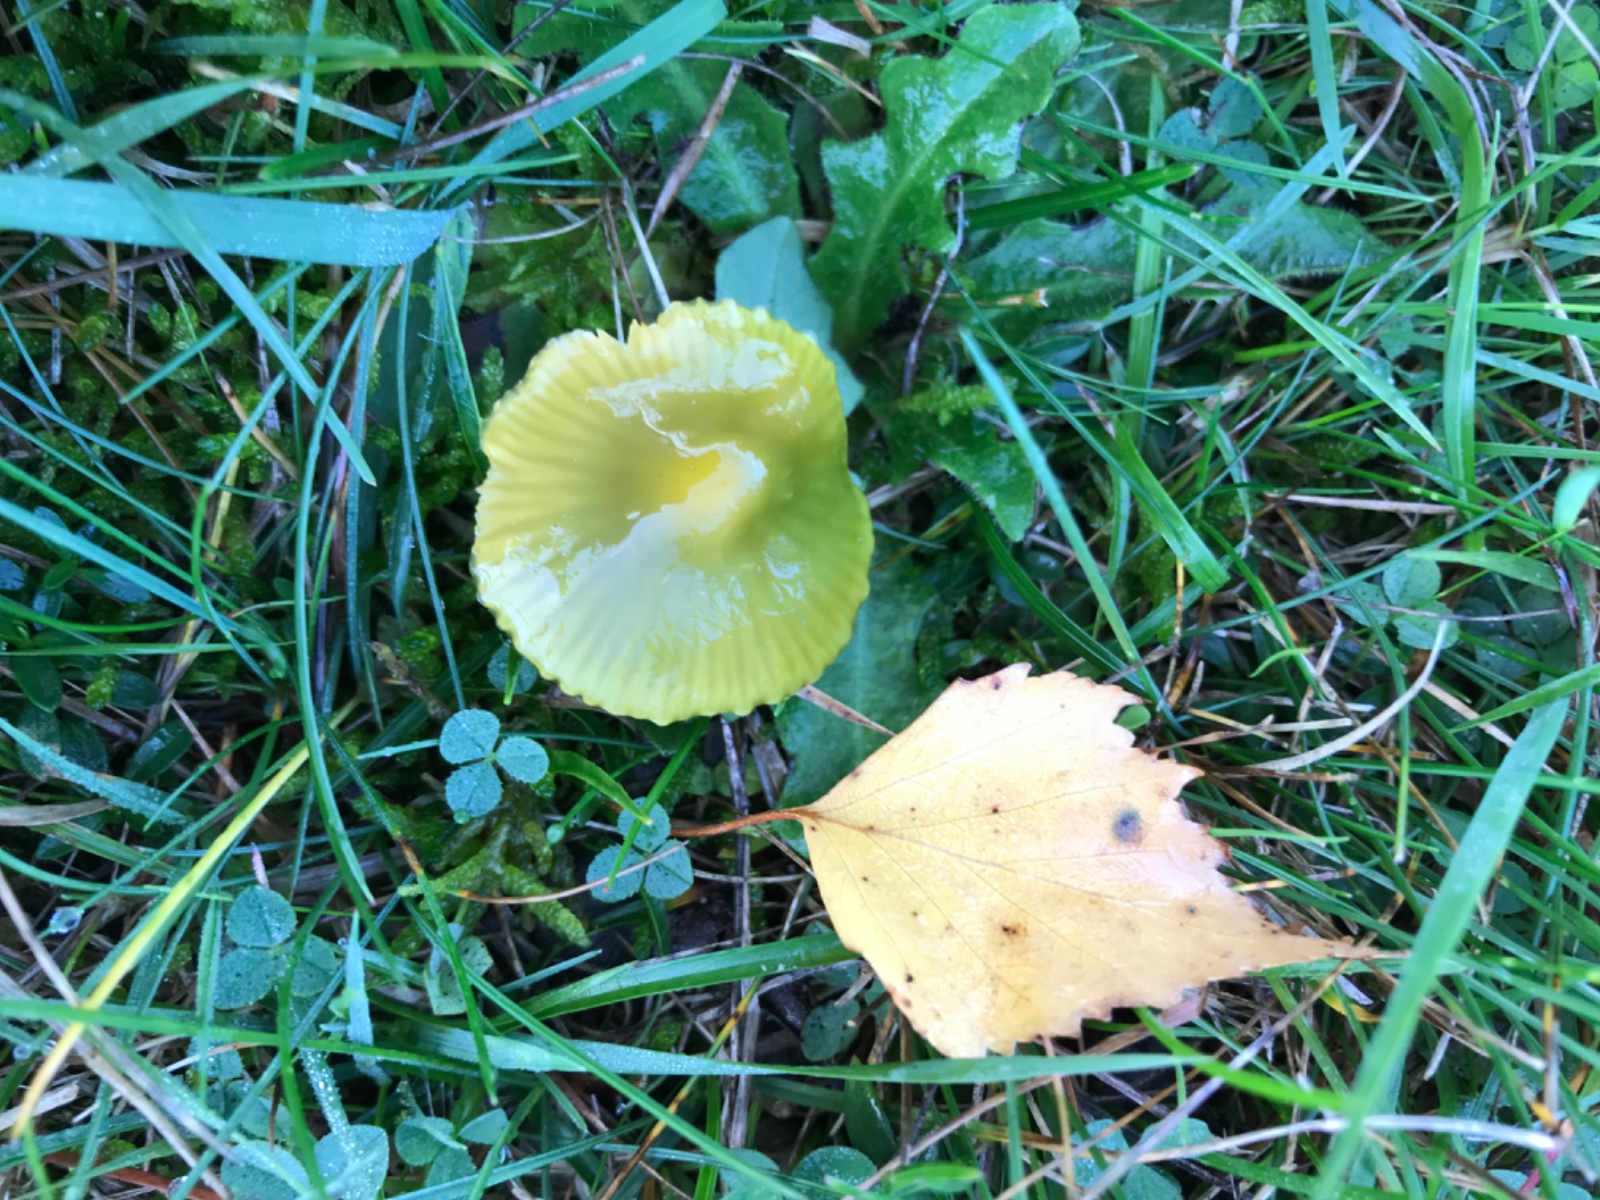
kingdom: Fungi
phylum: Basidiomycota
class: Agaricomycetes
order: Agaricales
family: Hygrophoraceae
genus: Gliophorus
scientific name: Gliophorus psittacinus
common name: papegøje-vokshat
